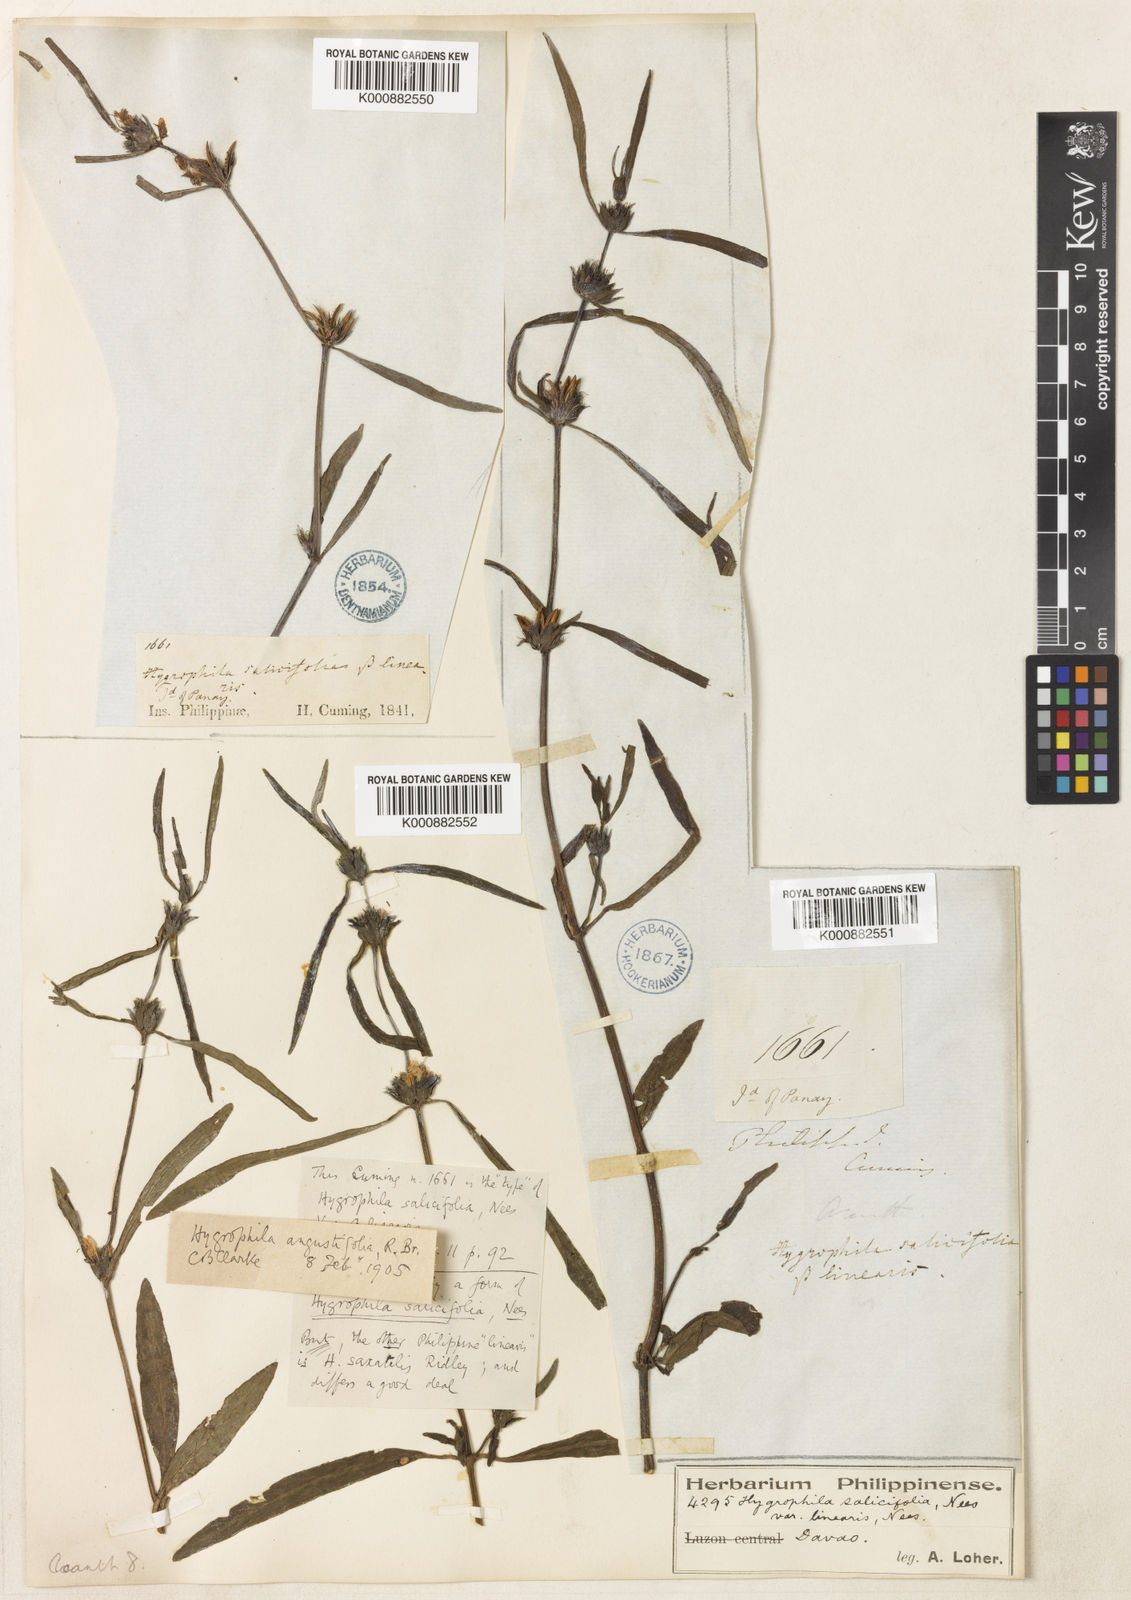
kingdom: Plantae
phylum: Tracheophyta
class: Magnoliopsida
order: Lamiales
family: Acanthaceae
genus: Hygrophila
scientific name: Hygrophila ringens
